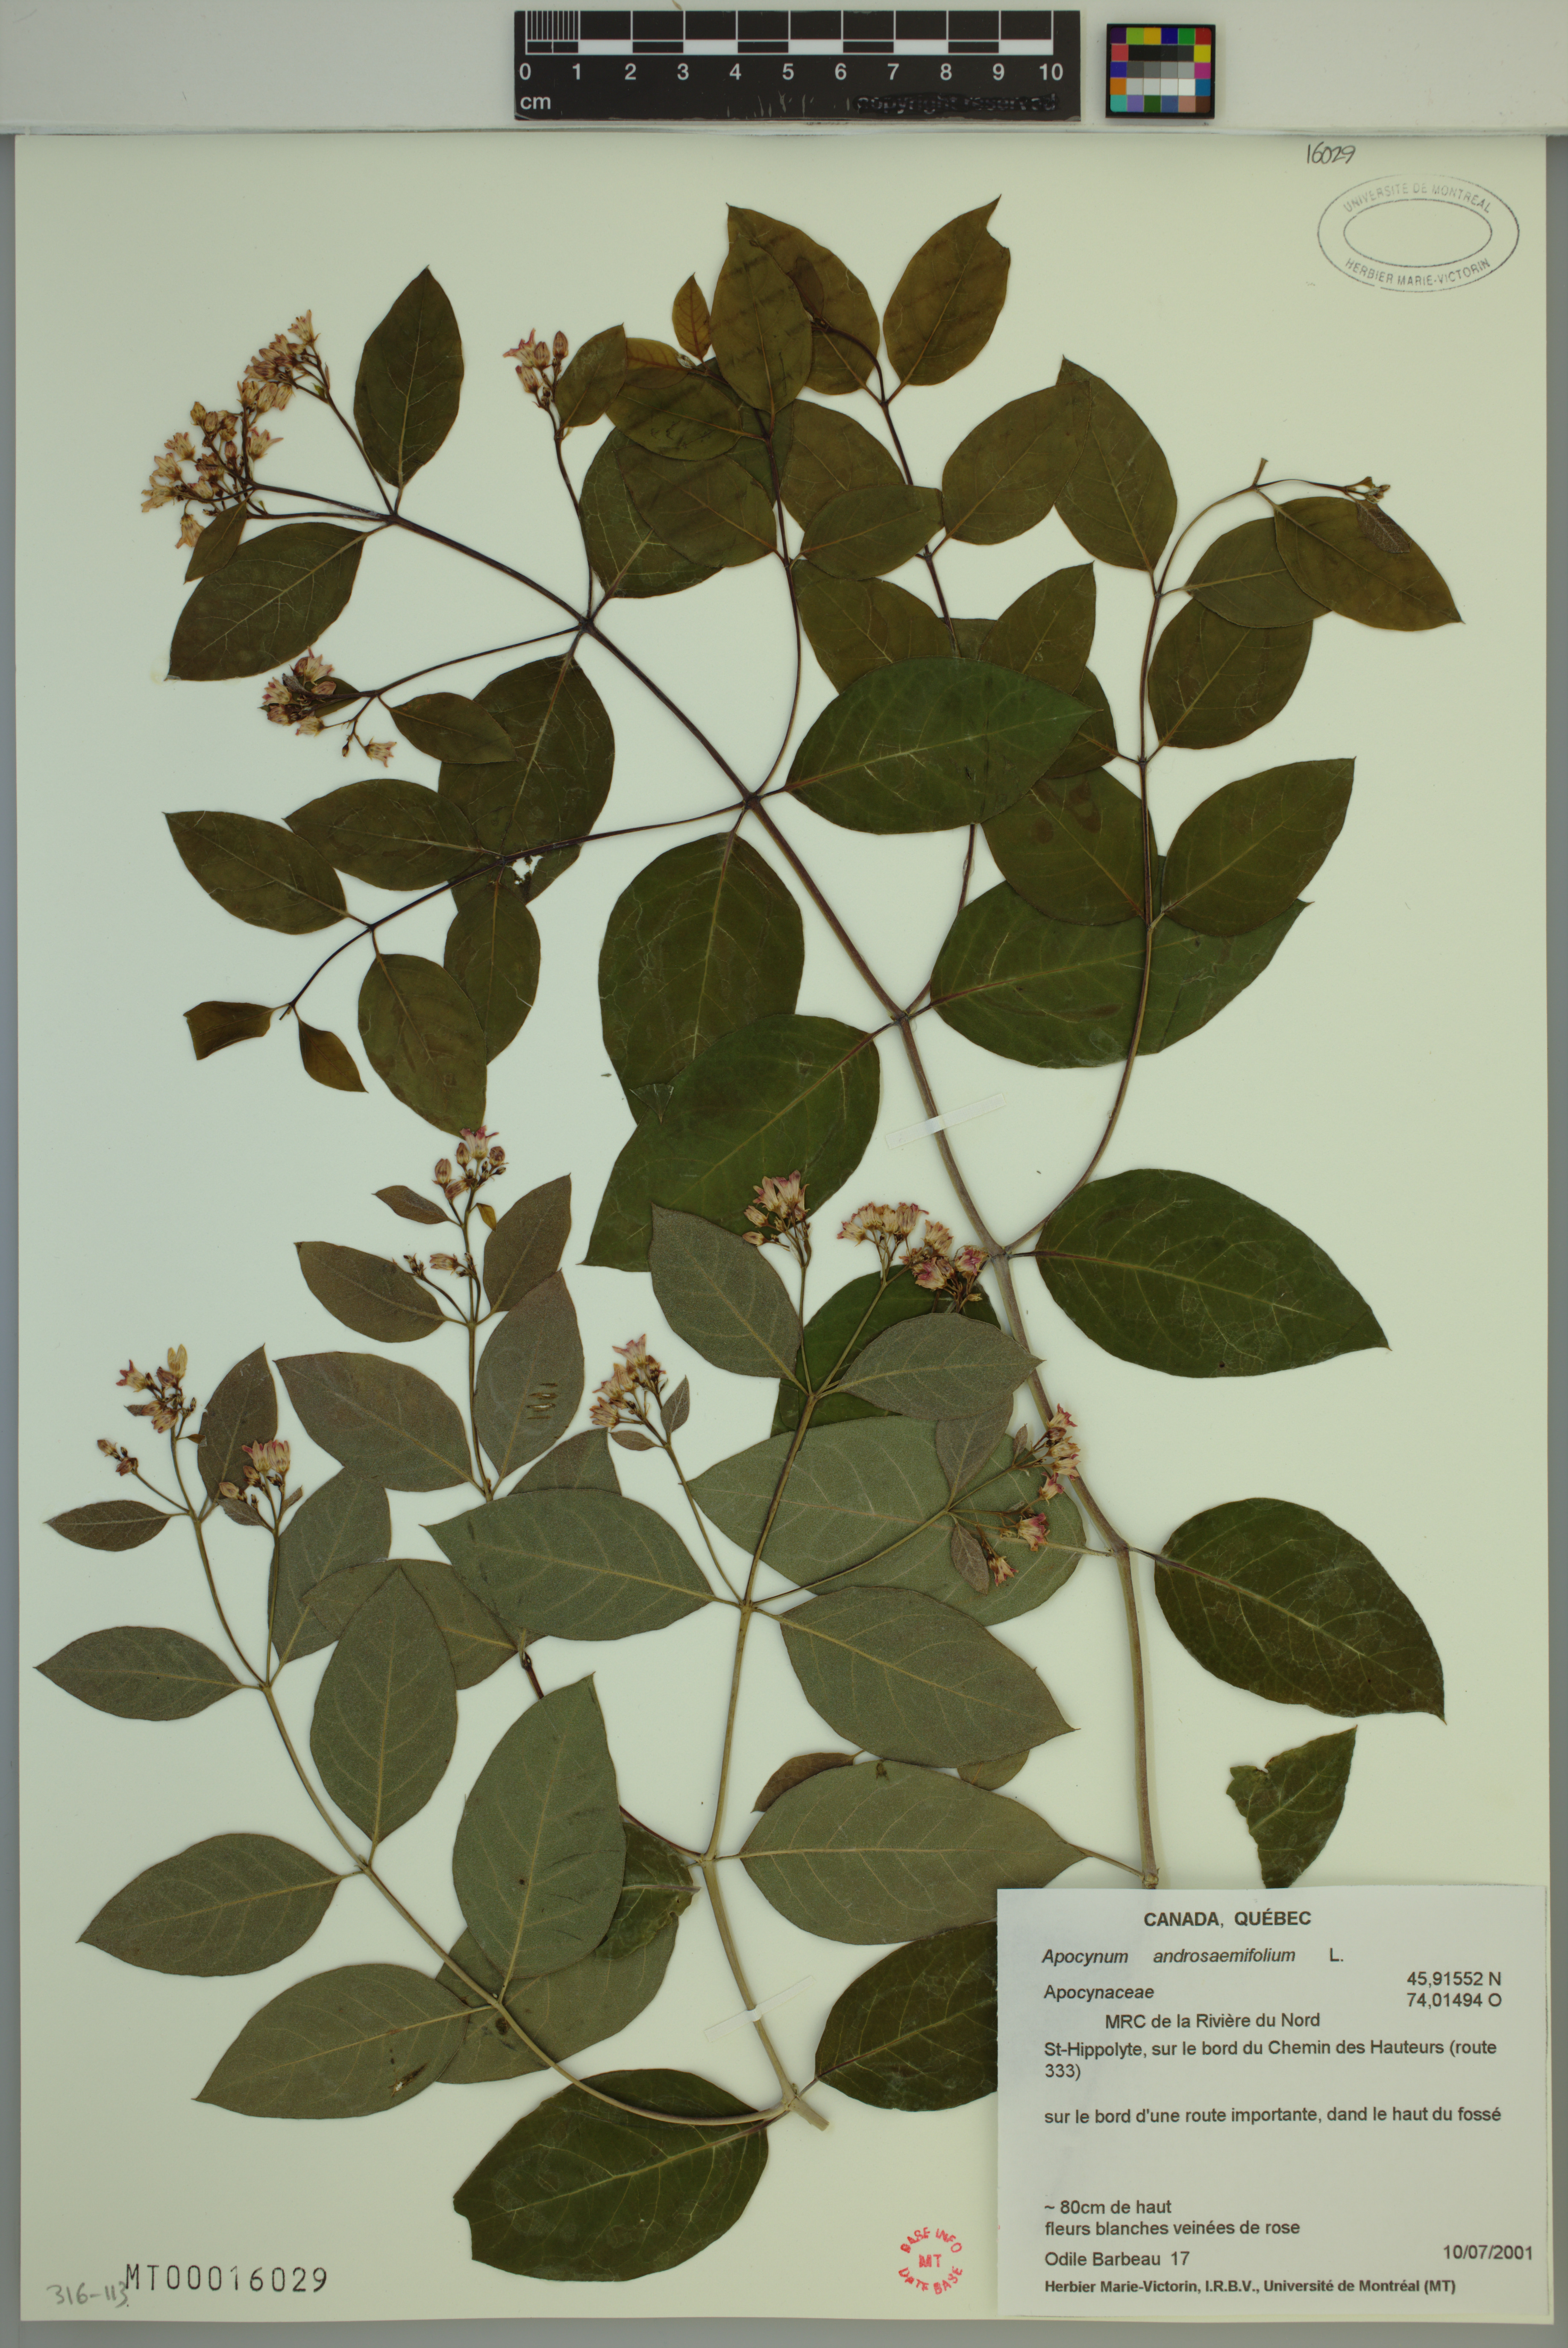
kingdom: Plantae
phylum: Tracheophyta
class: Magnoliopsida
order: Gentianales
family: Apocynaceae
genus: Apocynum
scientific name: Apocynum androsaemifolium
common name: Spreading dogbane
